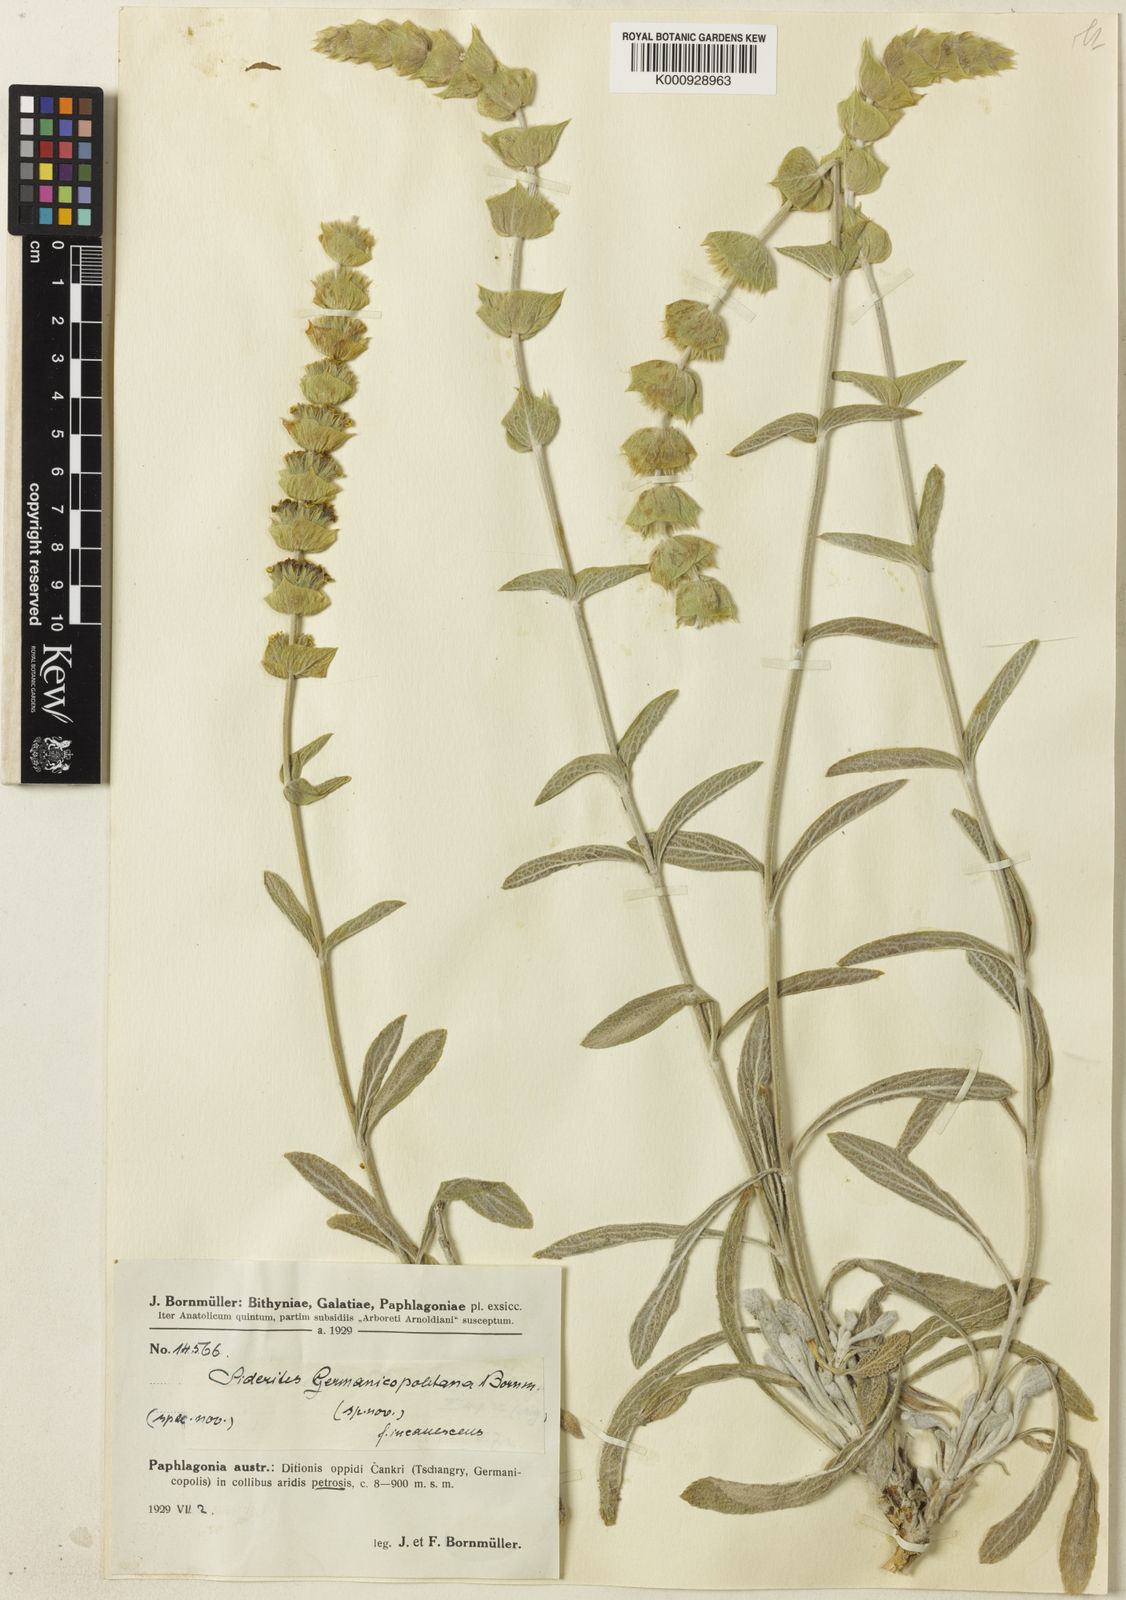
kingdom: Plantae
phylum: Tracheophyta
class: Magnoliopsida
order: Lamiales
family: Lamiaceae
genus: Sideritis
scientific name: Sideritis pisidica
